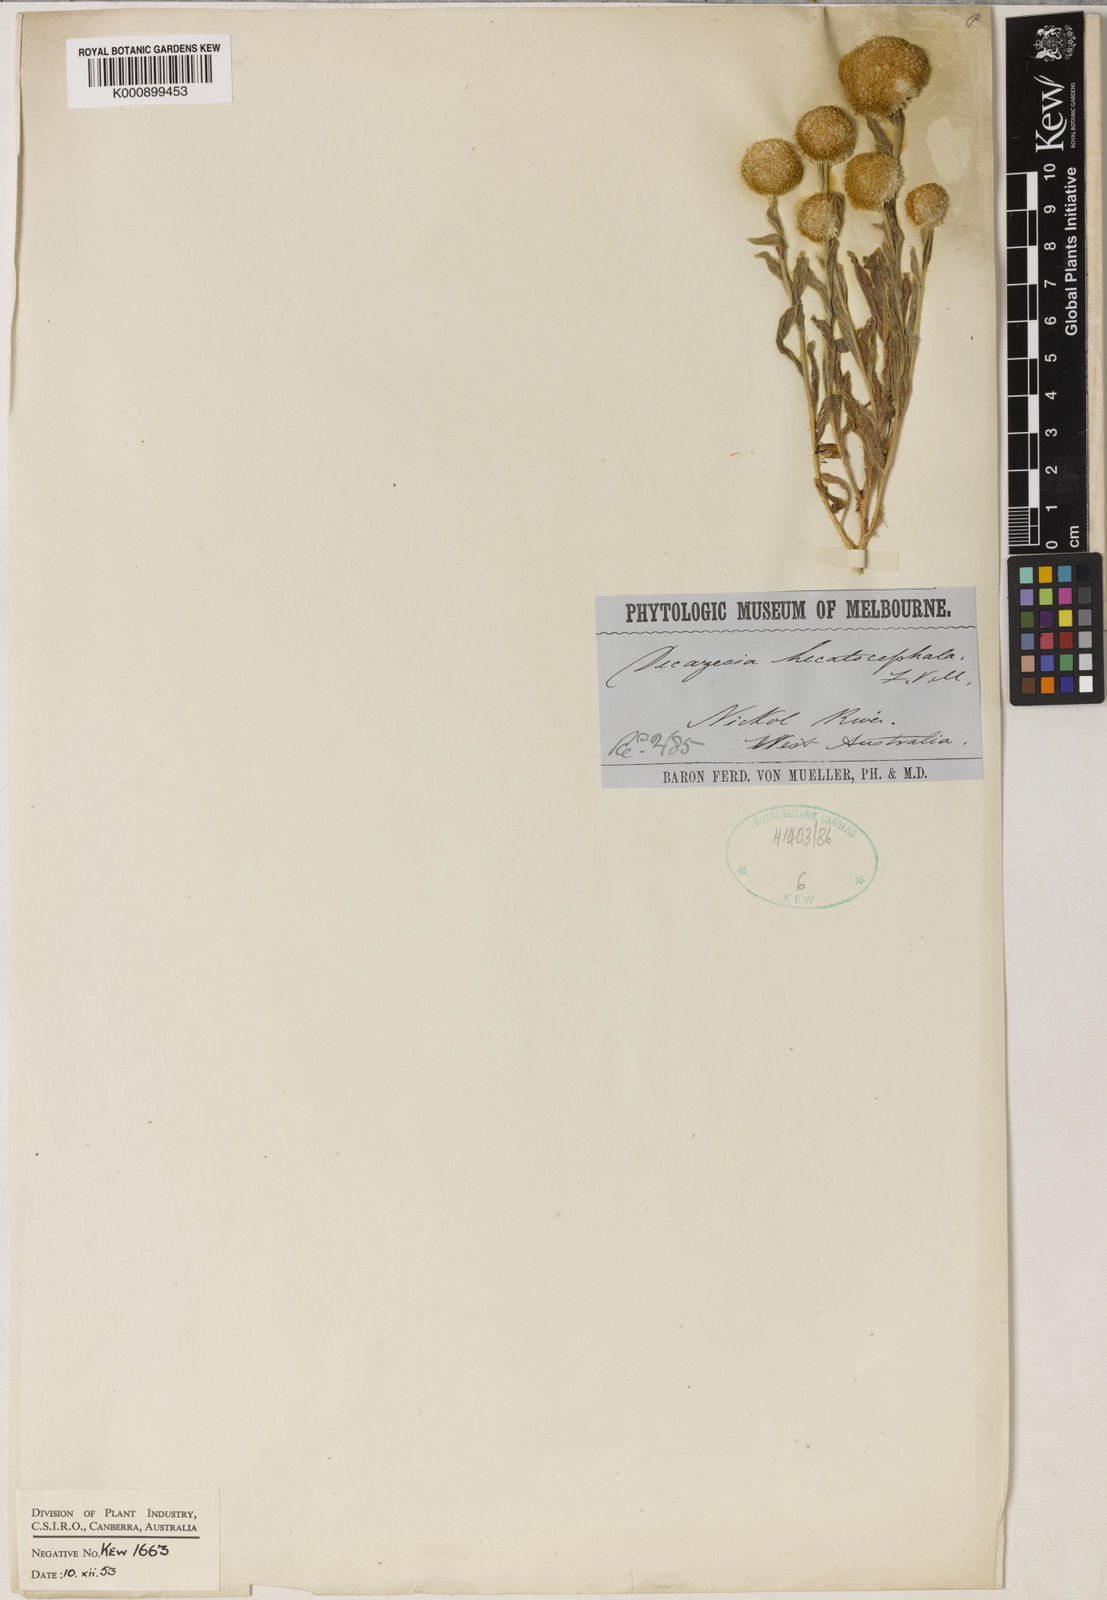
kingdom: Plantae
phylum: Tracheophyta
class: Magnoliopsida
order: Asterales
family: Asteraceae
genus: Decazesia
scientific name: Decazesia hecatocephala
